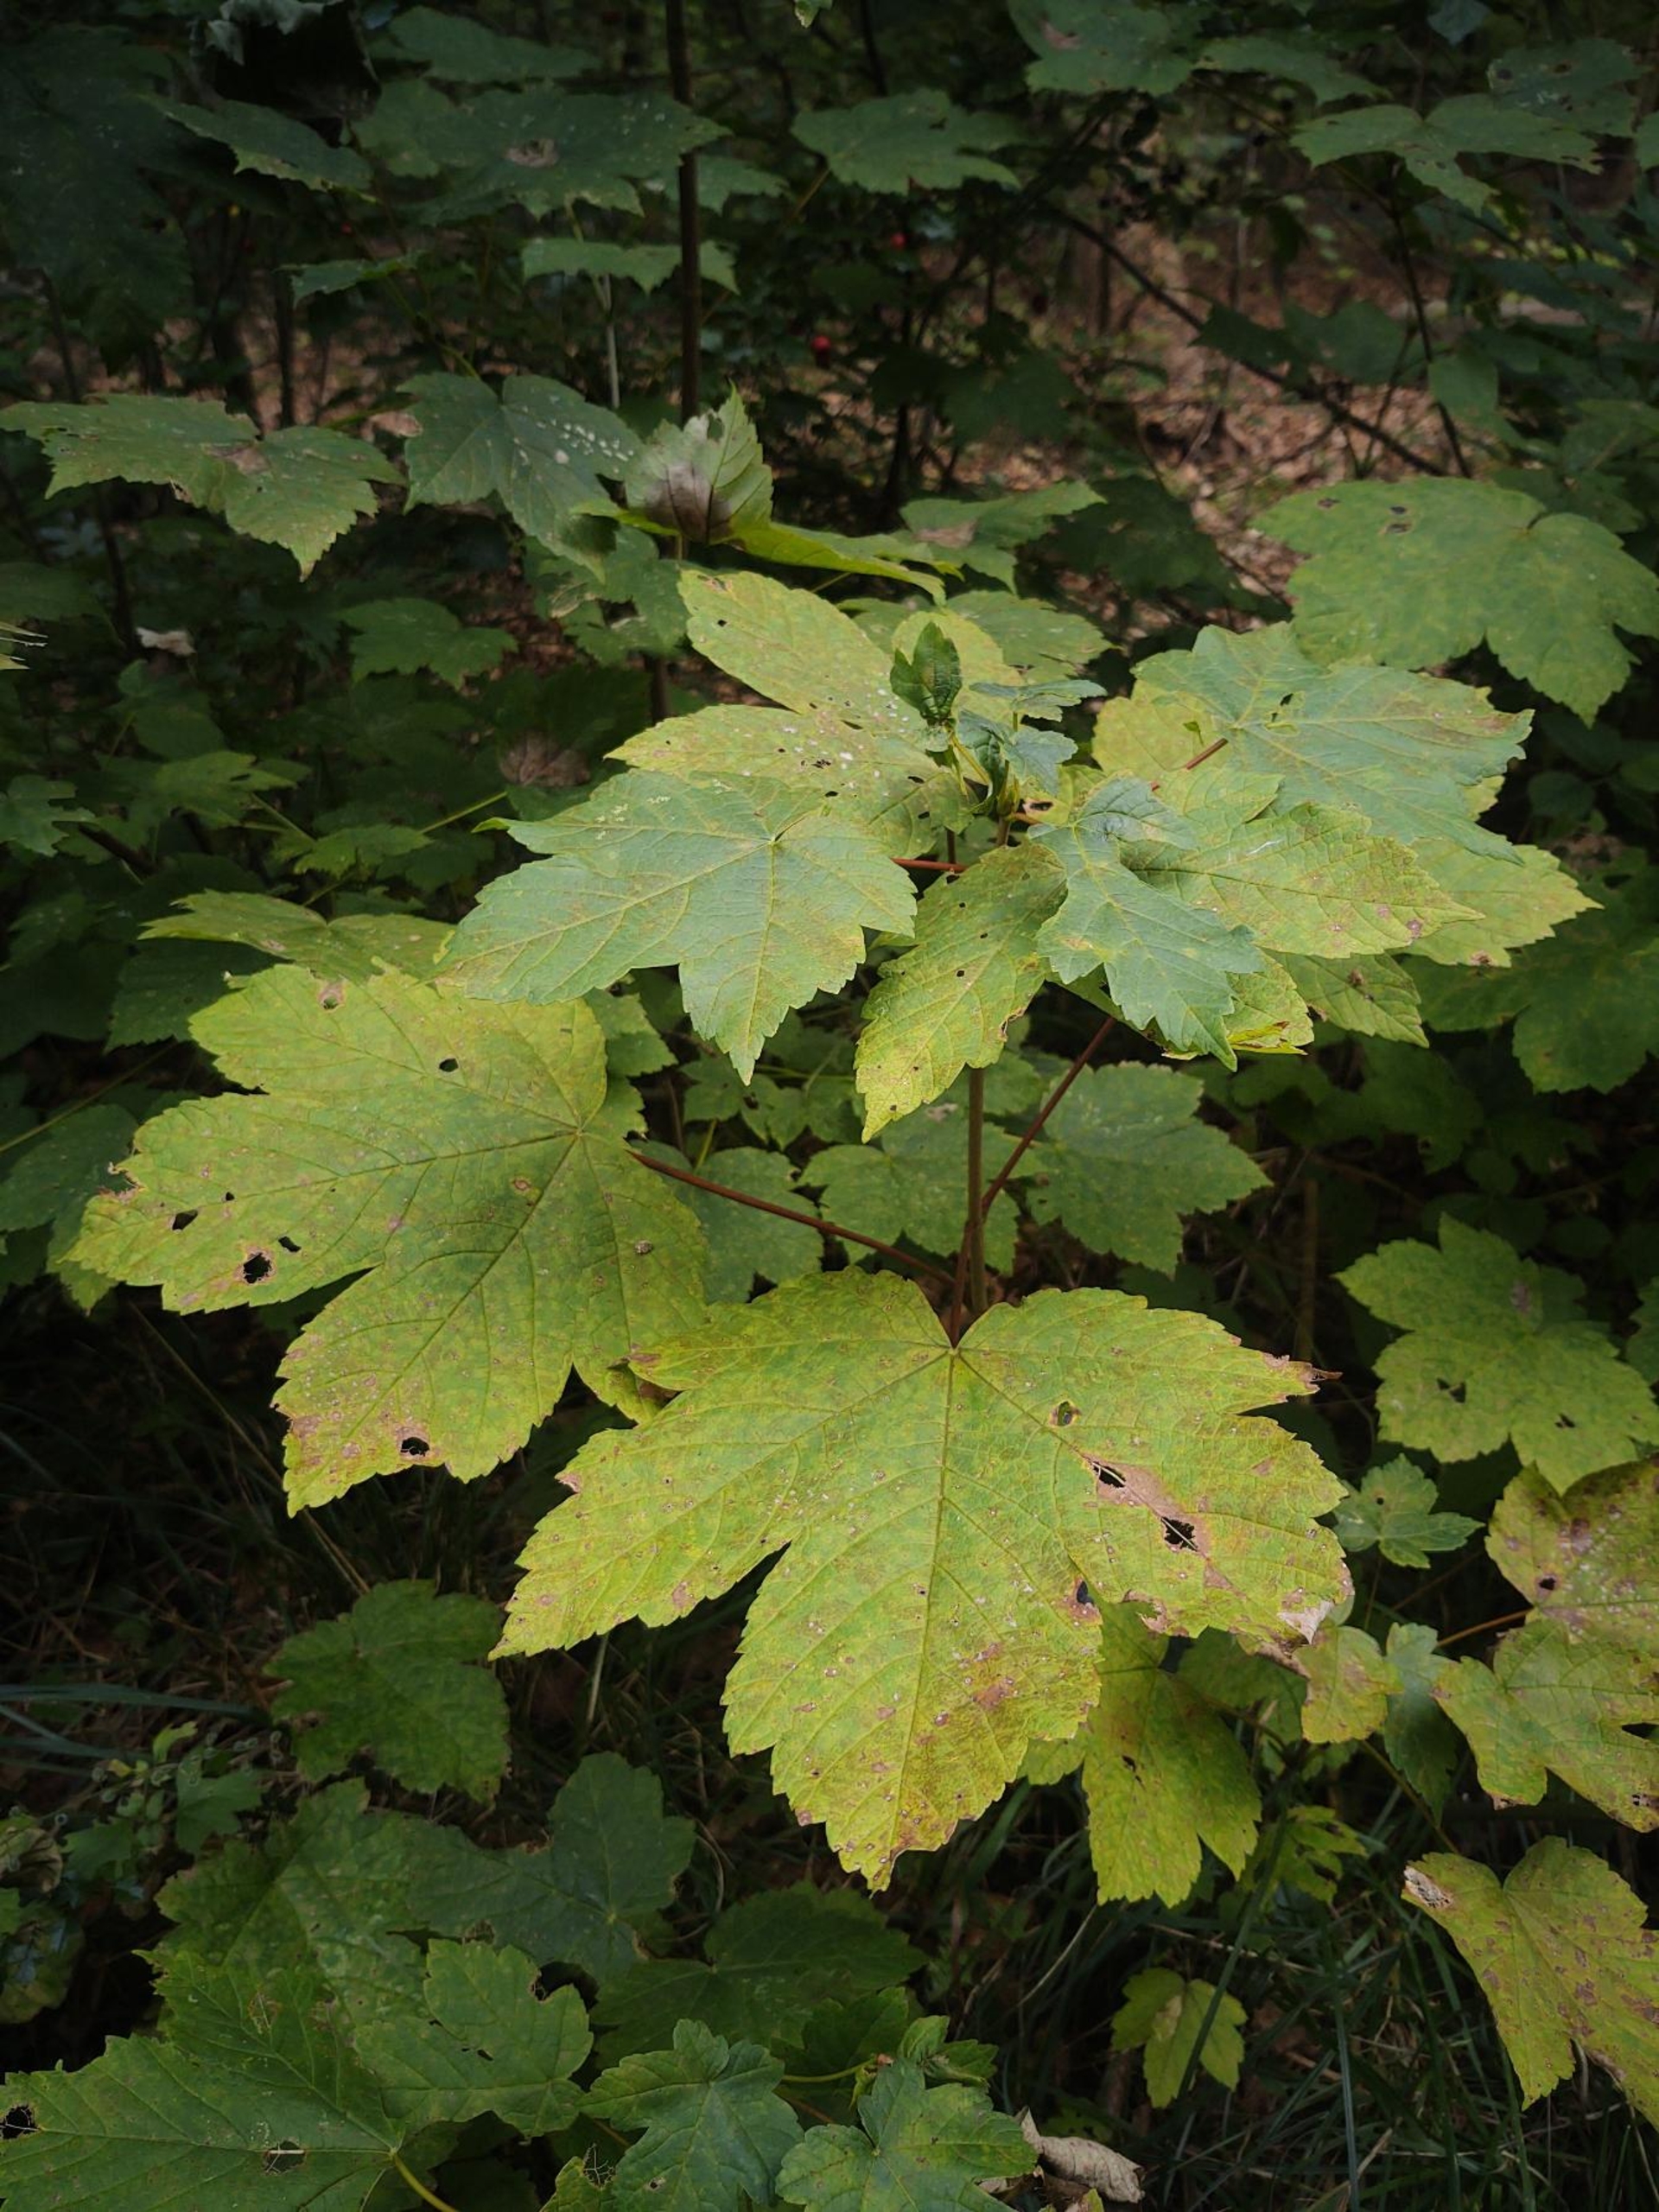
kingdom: Plantae
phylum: Tracheophyta
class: Magnoliopsida
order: Sapindales
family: Sapindaceae
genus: Acer
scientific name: Acer pseudoplatanus
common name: Ahorn
